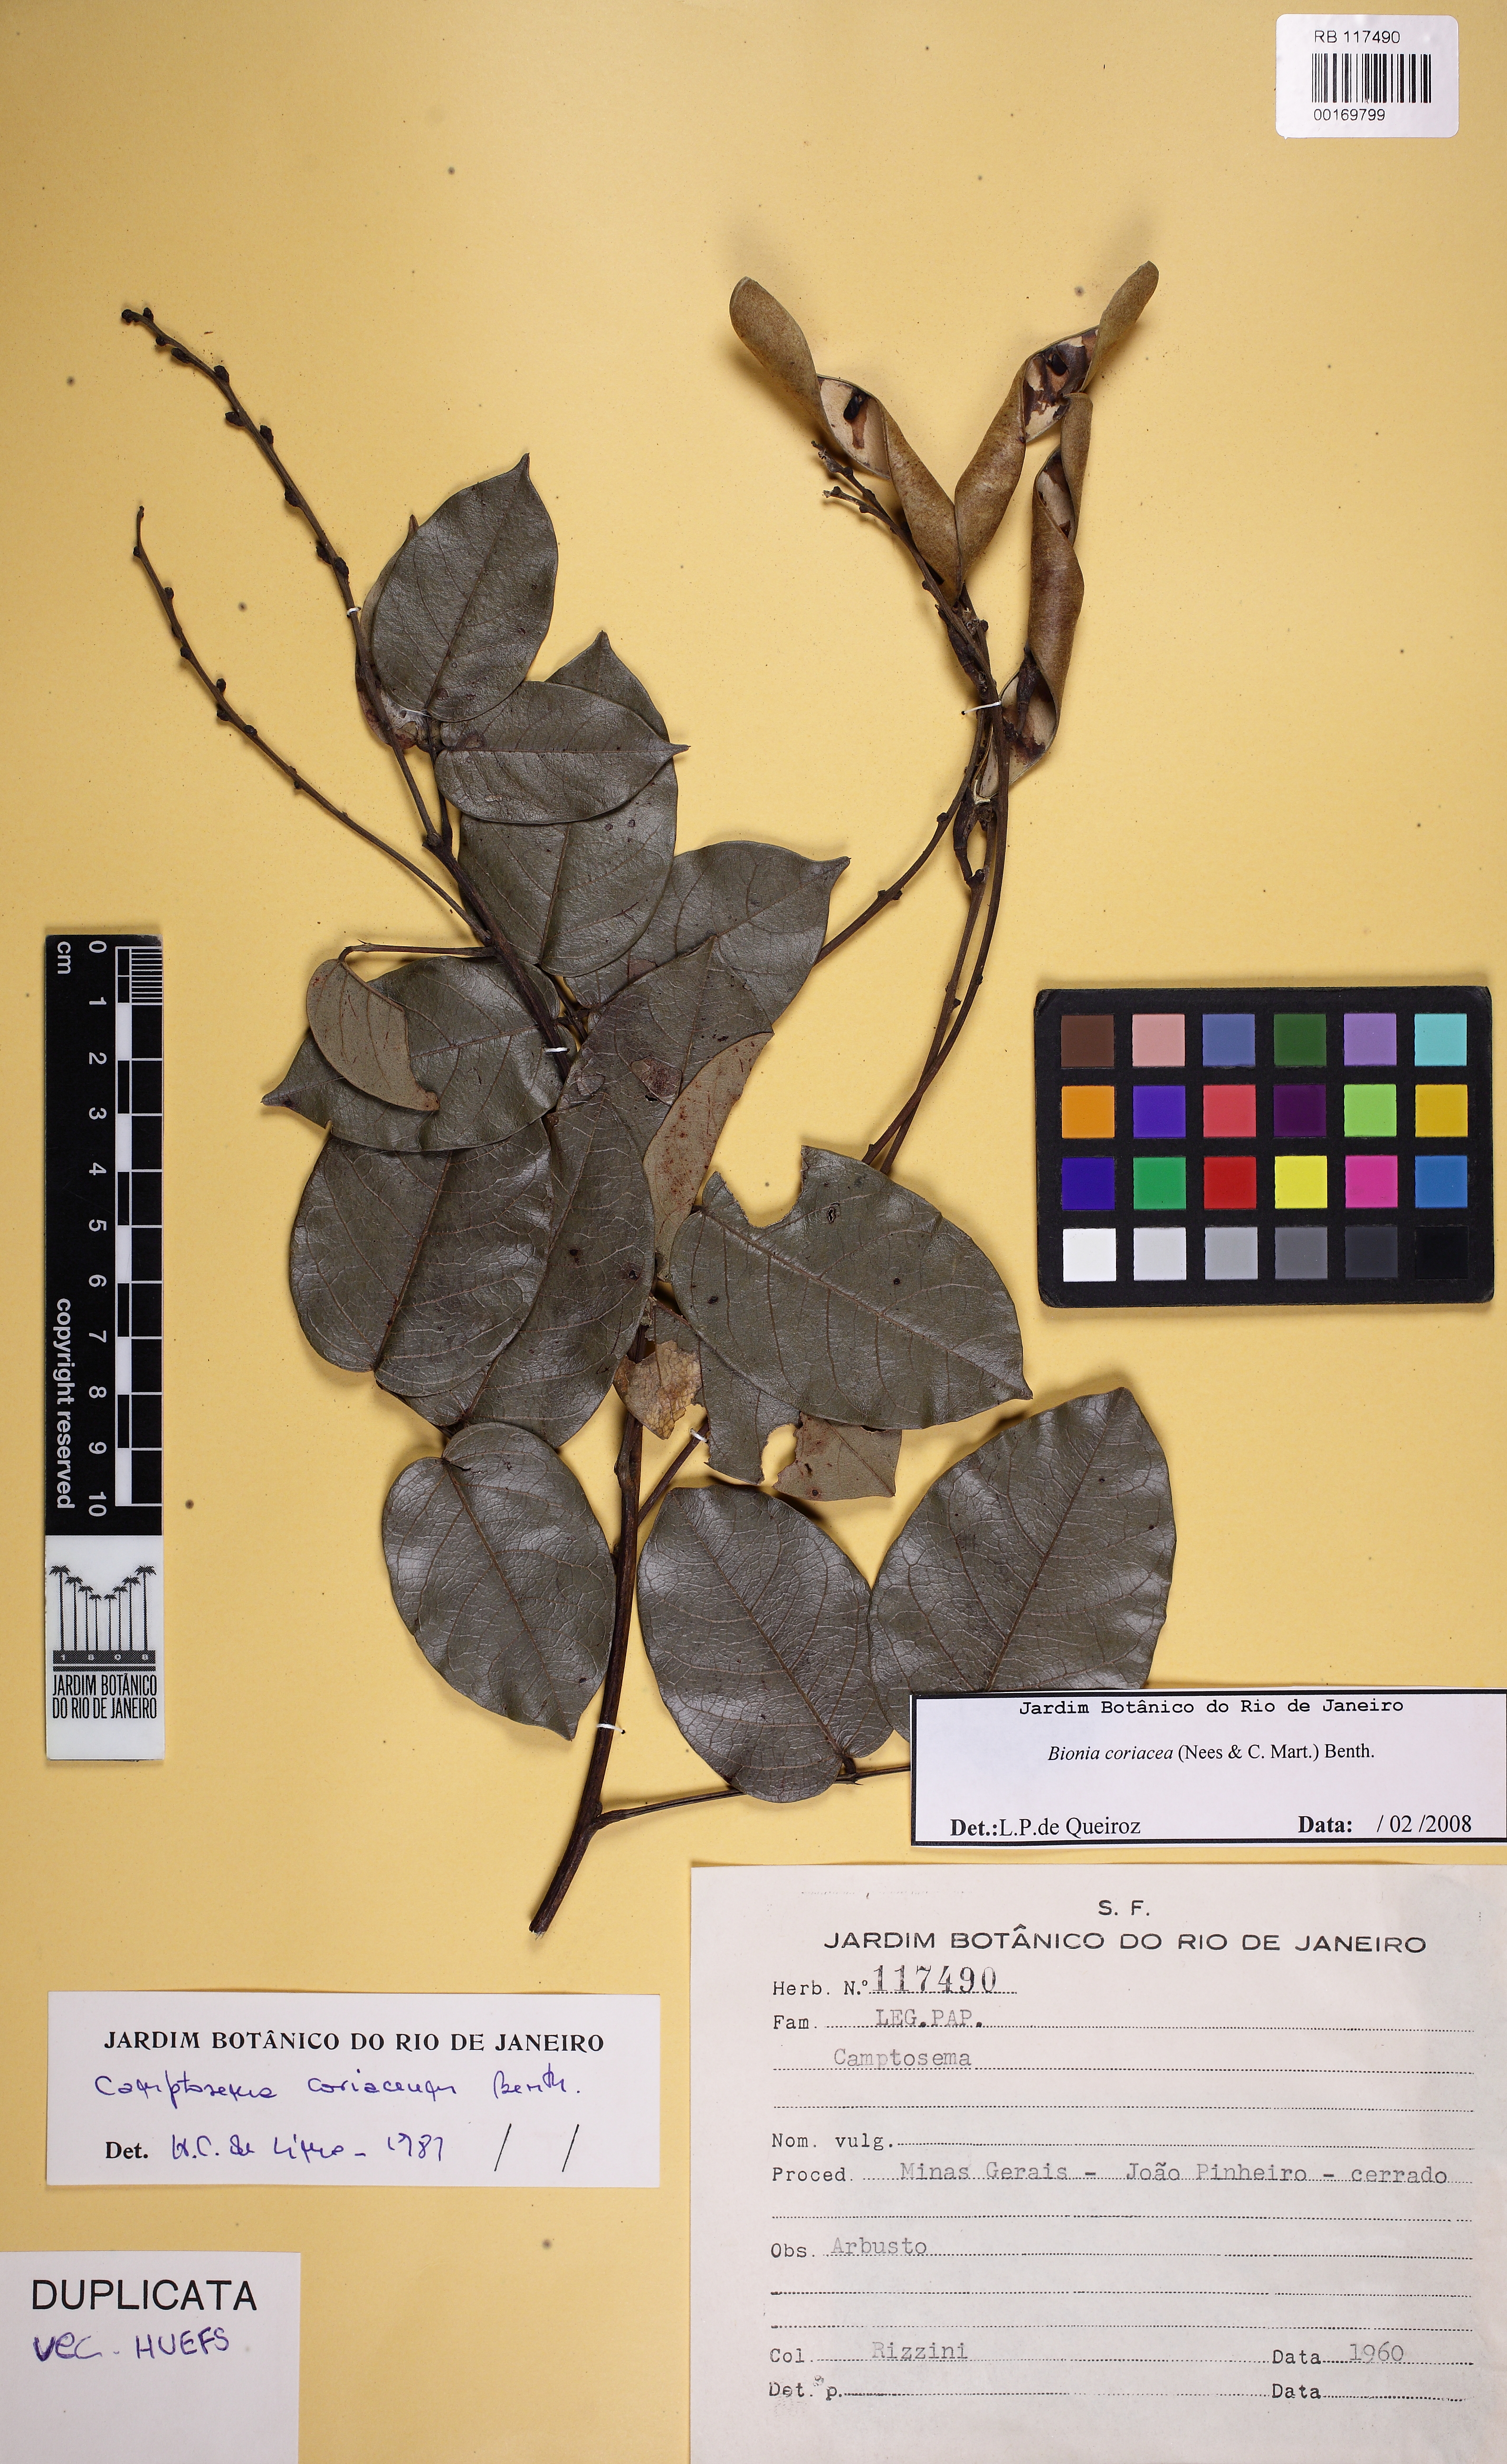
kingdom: Plantae
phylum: Tracheophyta
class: Magnoliopsida
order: Fabales
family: Fabaceae
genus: Camptosema
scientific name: Camptosema coriaceum
